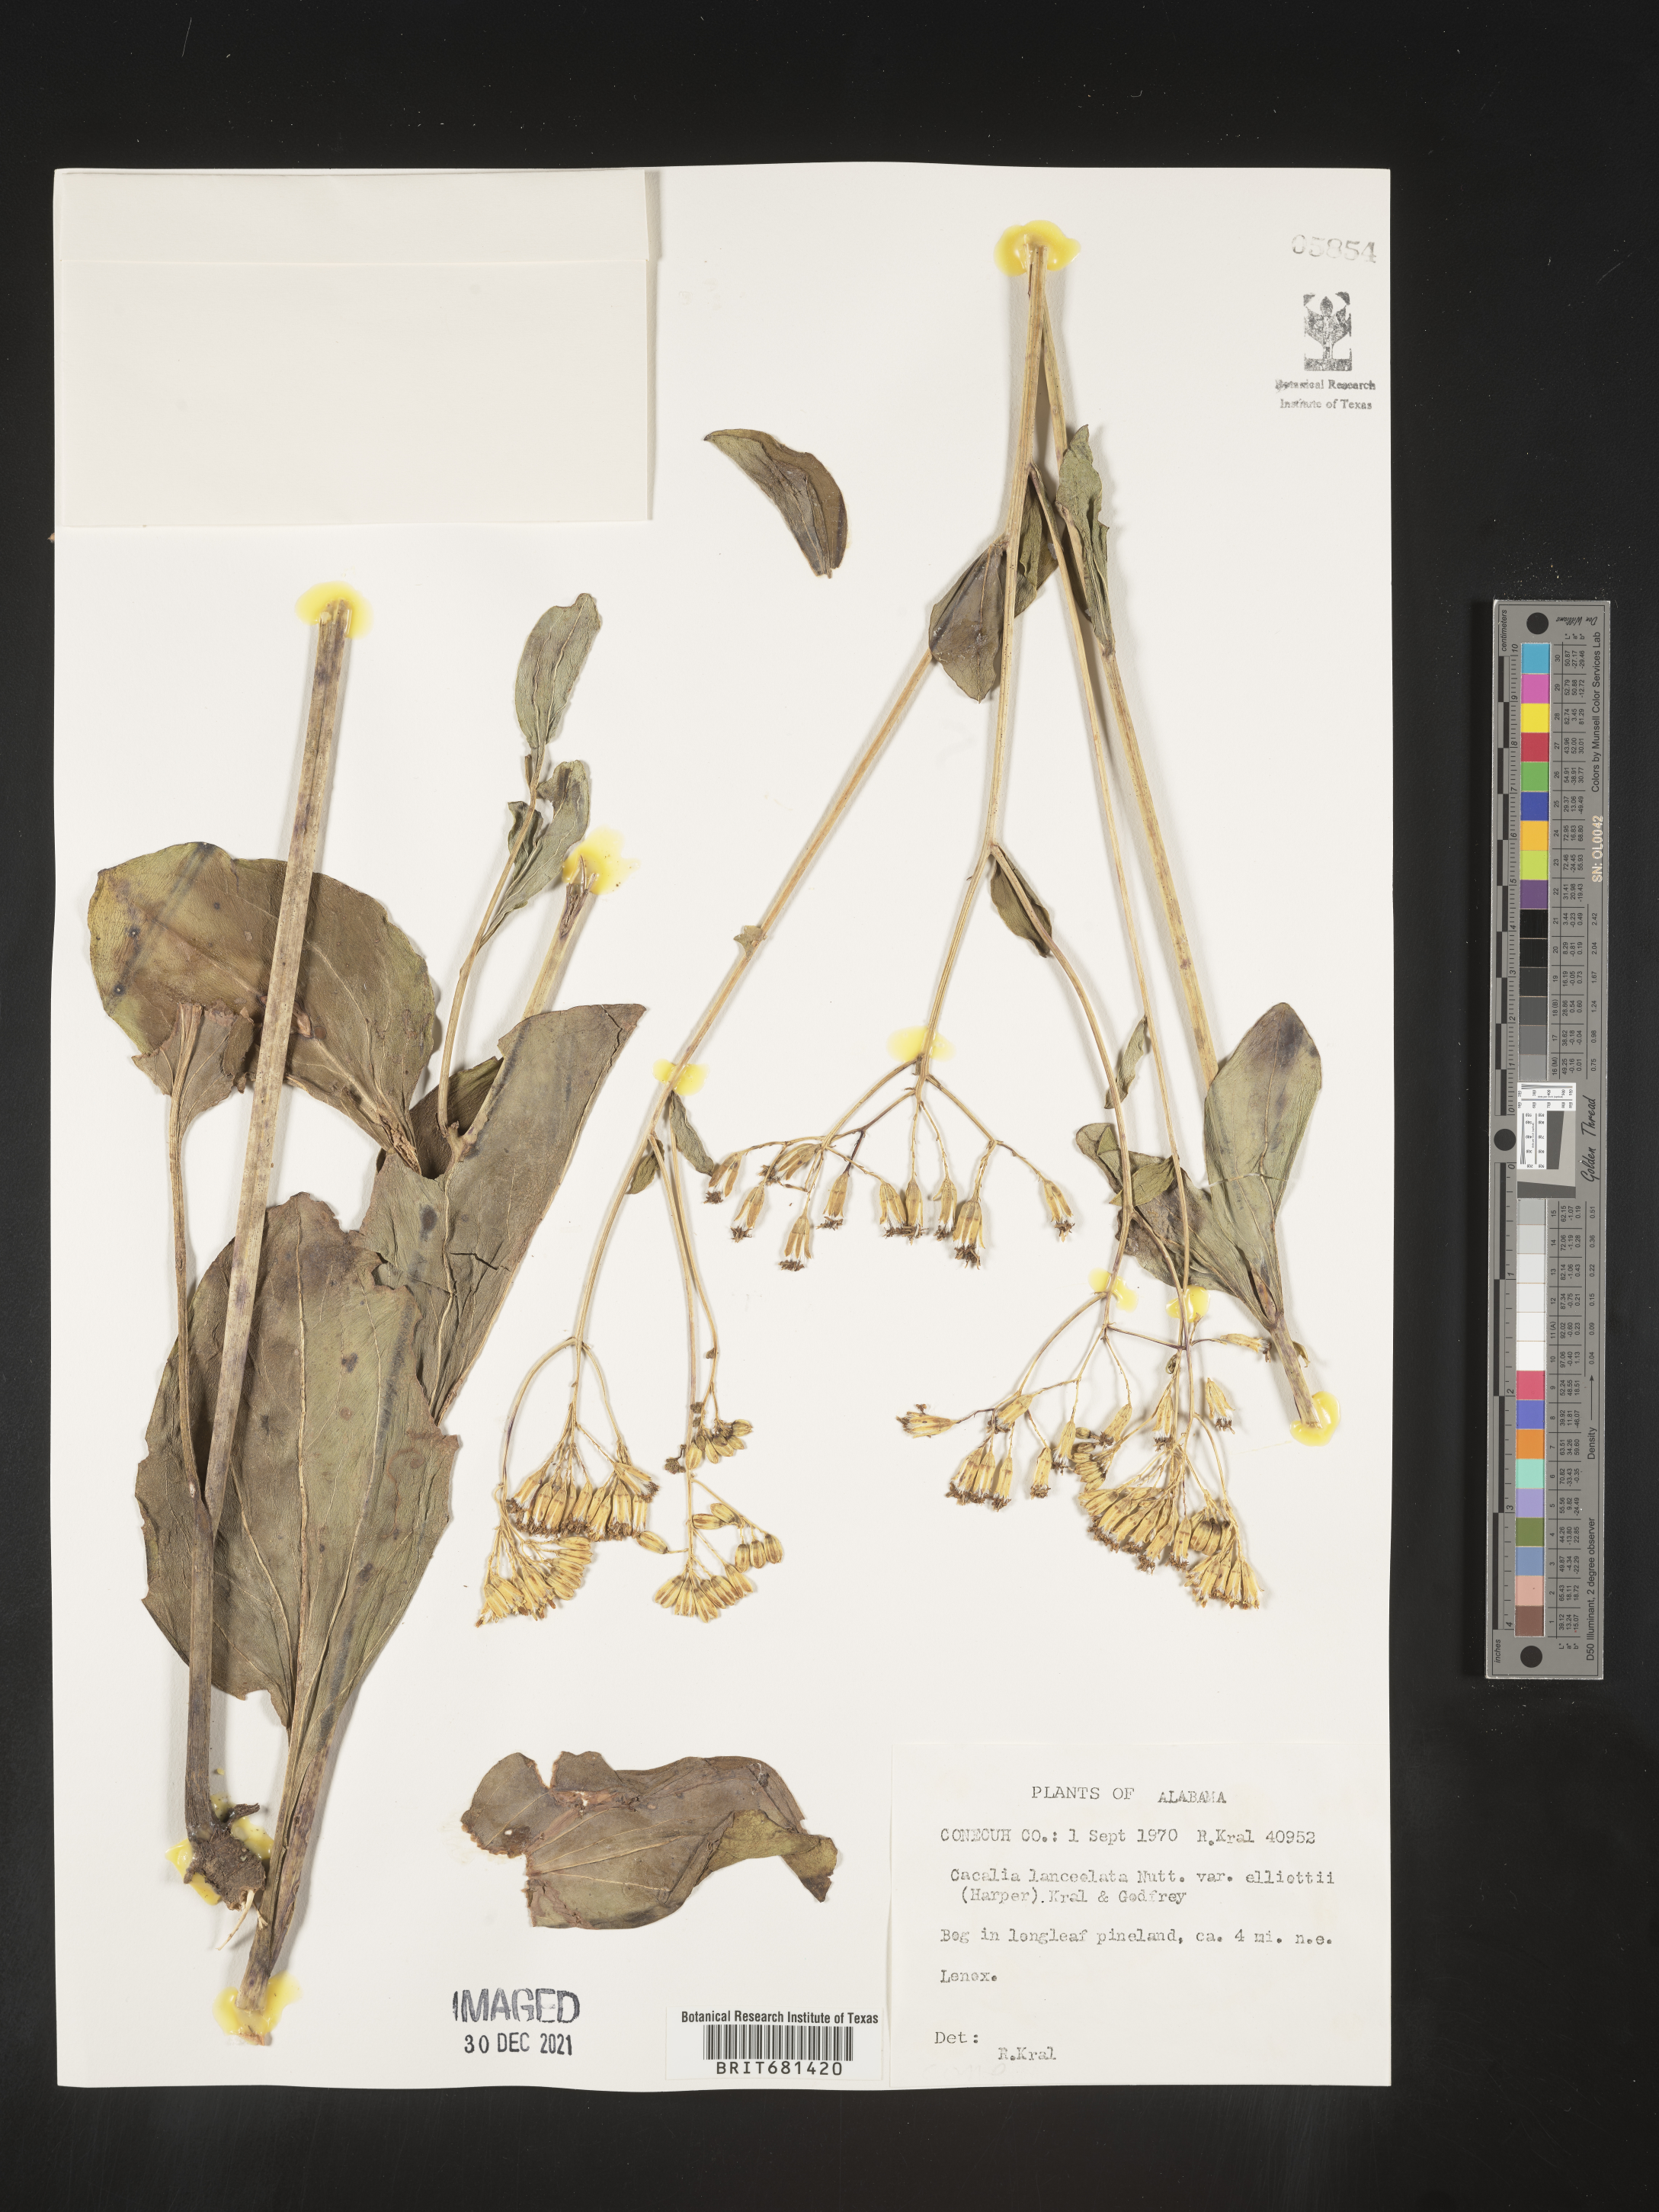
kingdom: Plantae
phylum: Tracheophyta
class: Magnoliopsida
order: Asterales
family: Asteraceae
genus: Arnoglossum
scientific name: Arnoglossum ovatum
